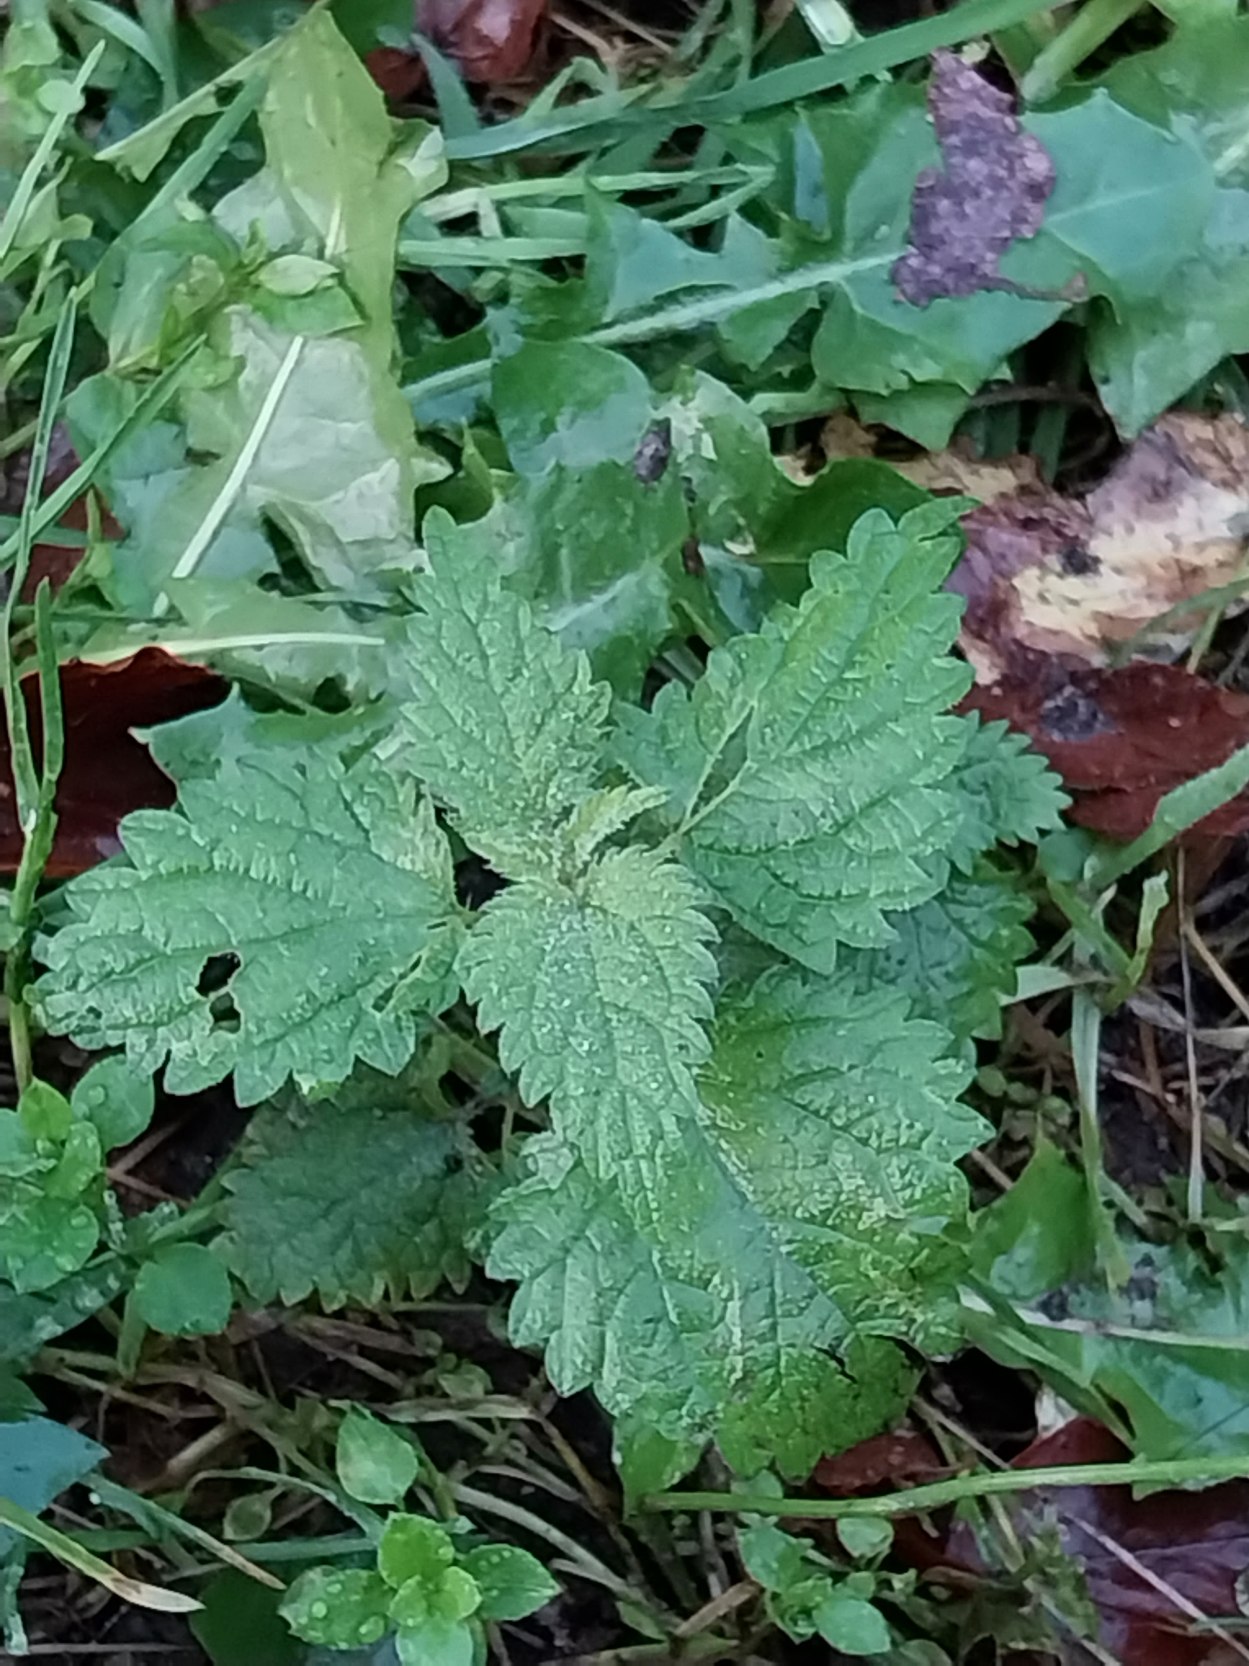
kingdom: Plantae
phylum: Tracheophyta
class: Magnoliopsida
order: Rosales
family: Urticaceae
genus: Urtica
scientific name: Urtica dioica
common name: Stor nælde
